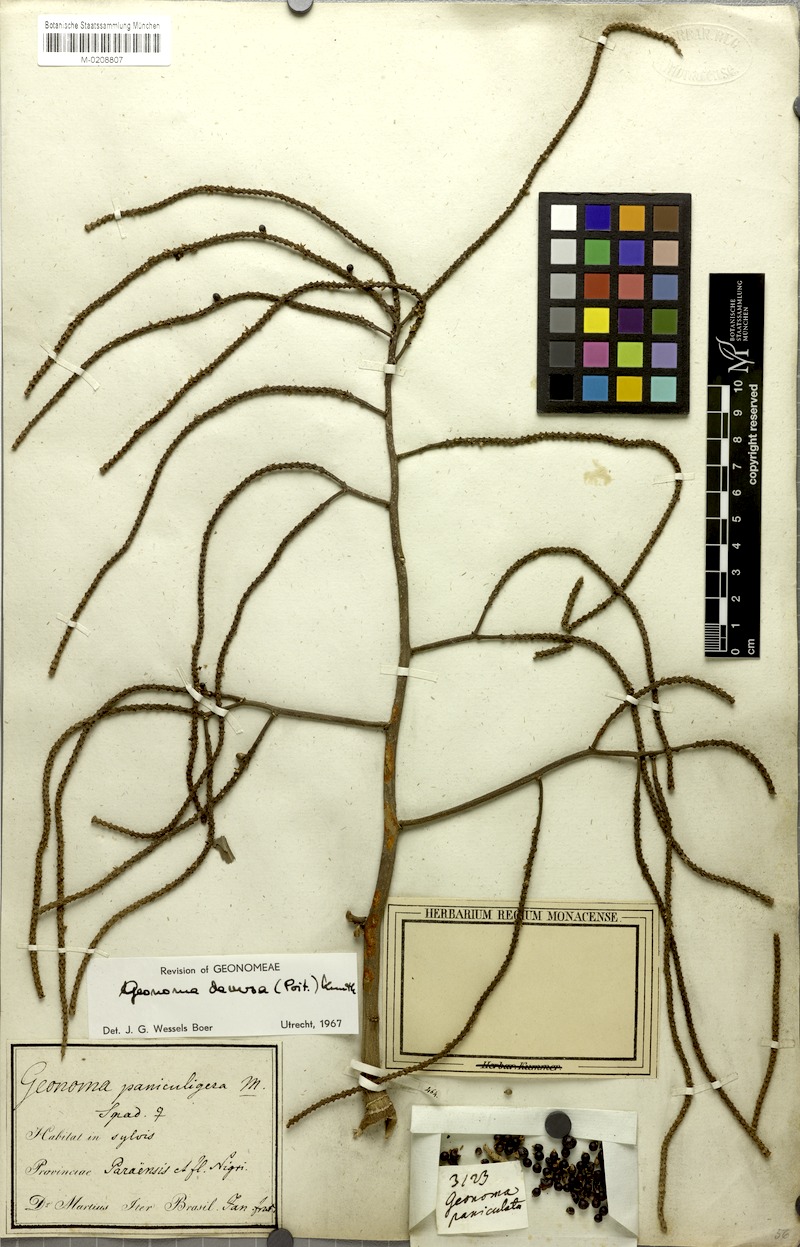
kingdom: Plantae
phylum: Tracheophyta
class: Liliopsida
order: Arecales
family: Arecaceae
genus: Geonoma
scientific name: Geonoma deversa
